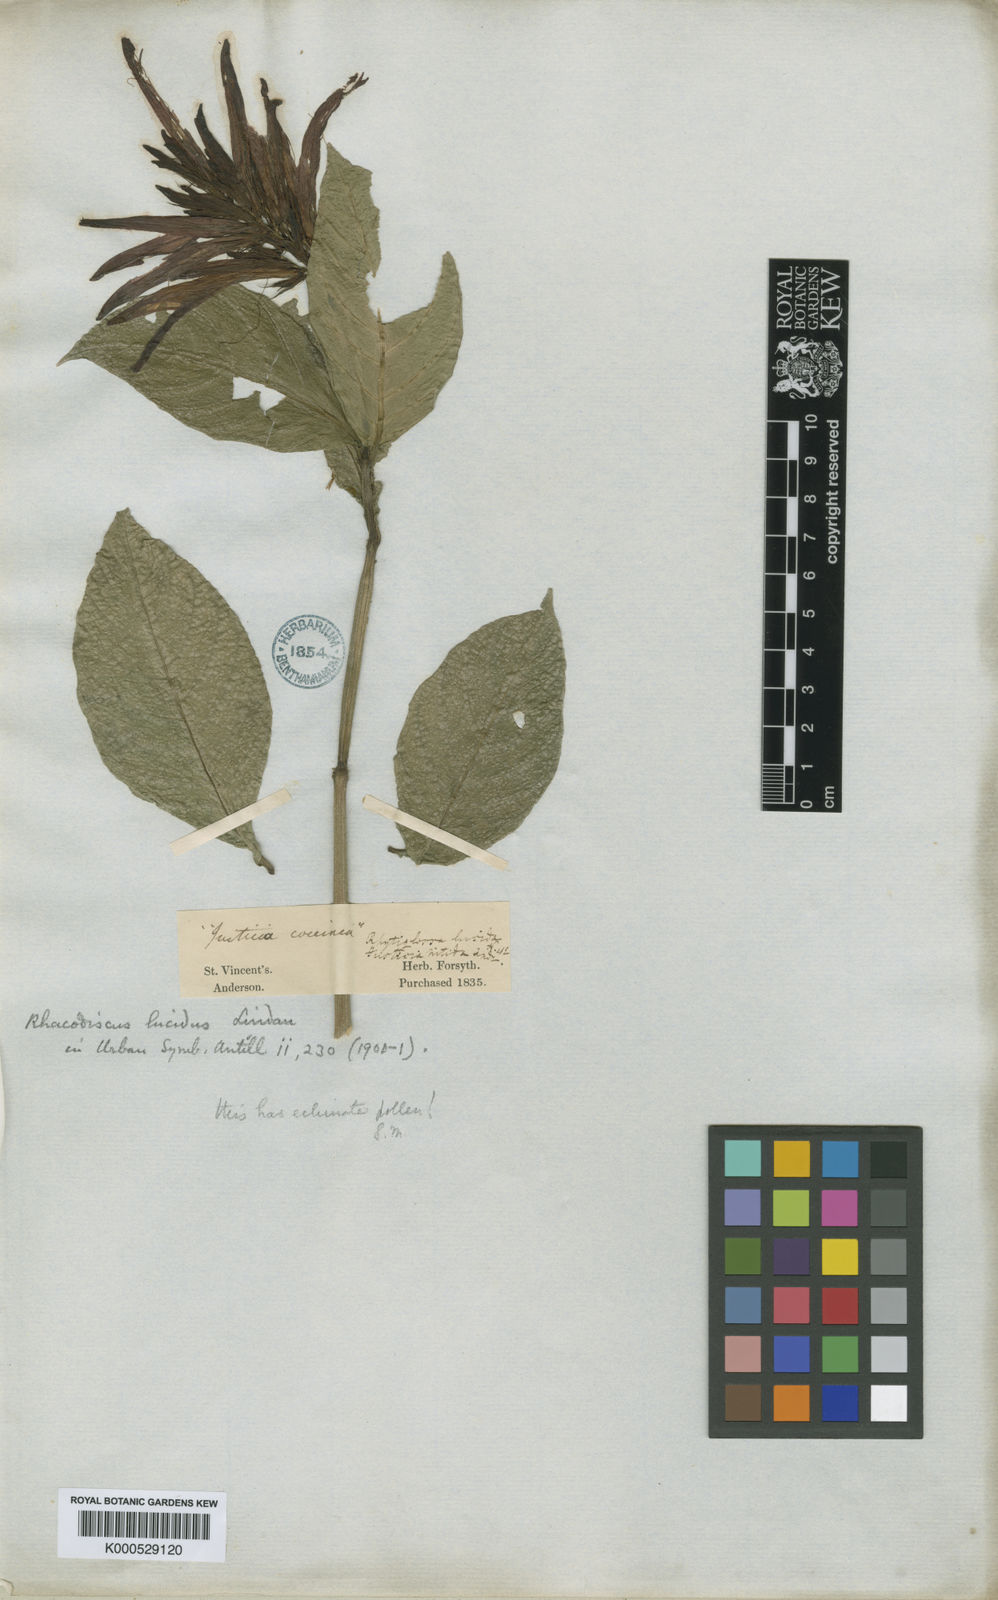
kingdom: Plantae
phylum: Tracheophyta
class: Magnoliopsida
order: Lamiales
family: Acanthaceae
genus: Justicia
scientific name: Justicia luschnathii
